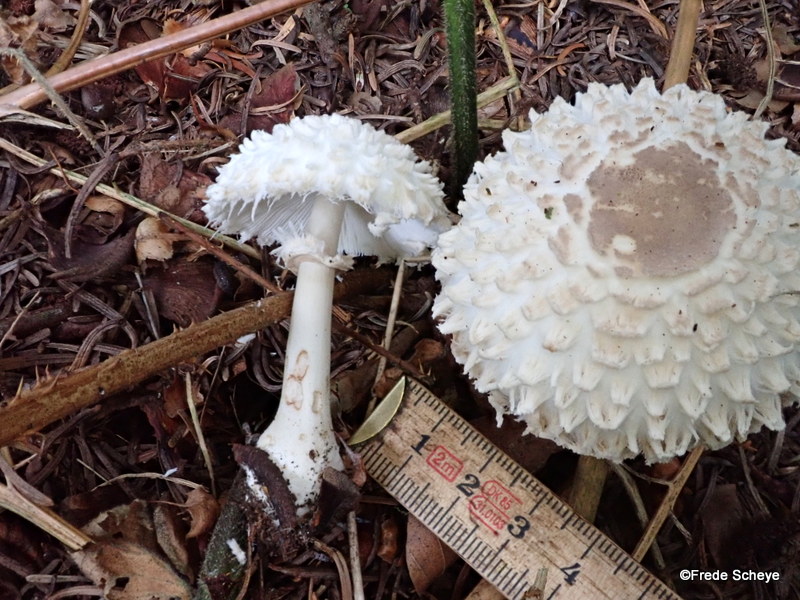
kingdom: Fungi
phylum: Basidiomycota
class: Agaricomycetes
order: Agaricales
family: Agaricaceae
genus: Leucoagaricus
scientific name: Leucoagaricus nympharum
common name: gran-silkehat
